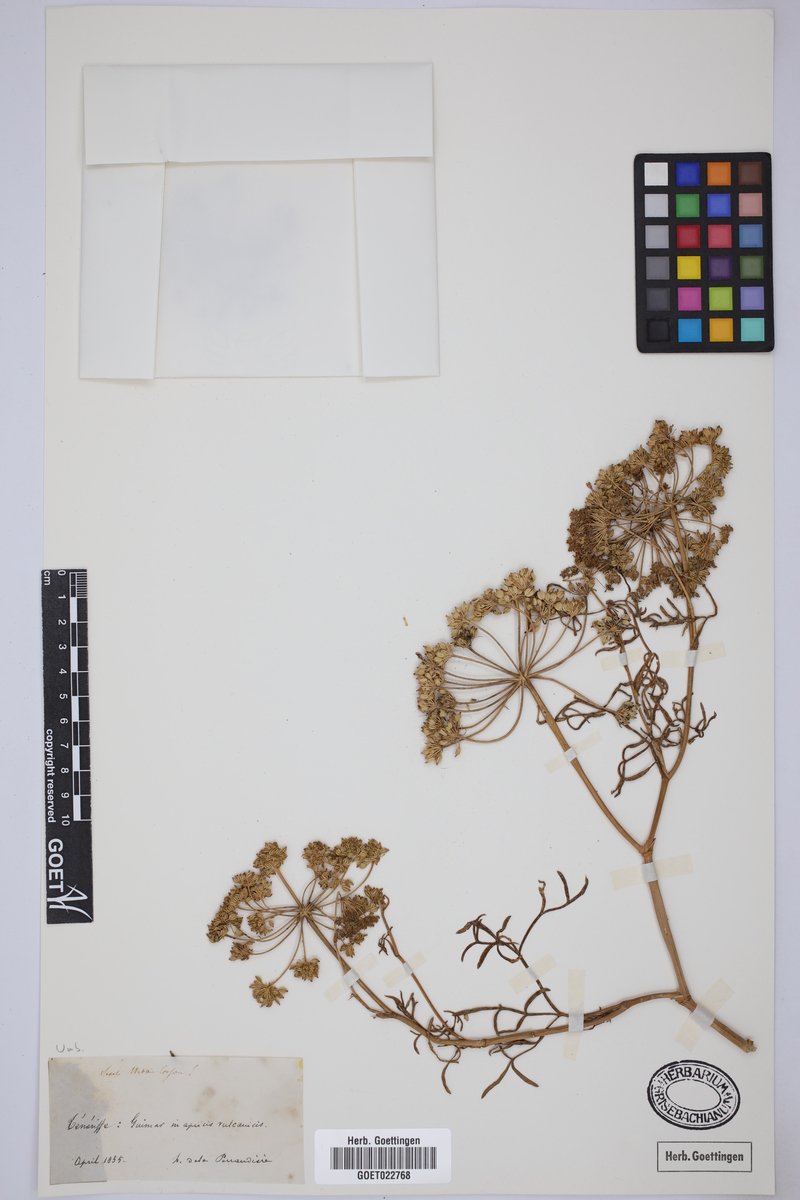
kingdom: Plantae
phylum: Tracheophyta
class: Magnoliopsida
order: Apiales
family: Apiaceae
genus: Rutheopsis
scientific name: Rutheopsis tortuosa
